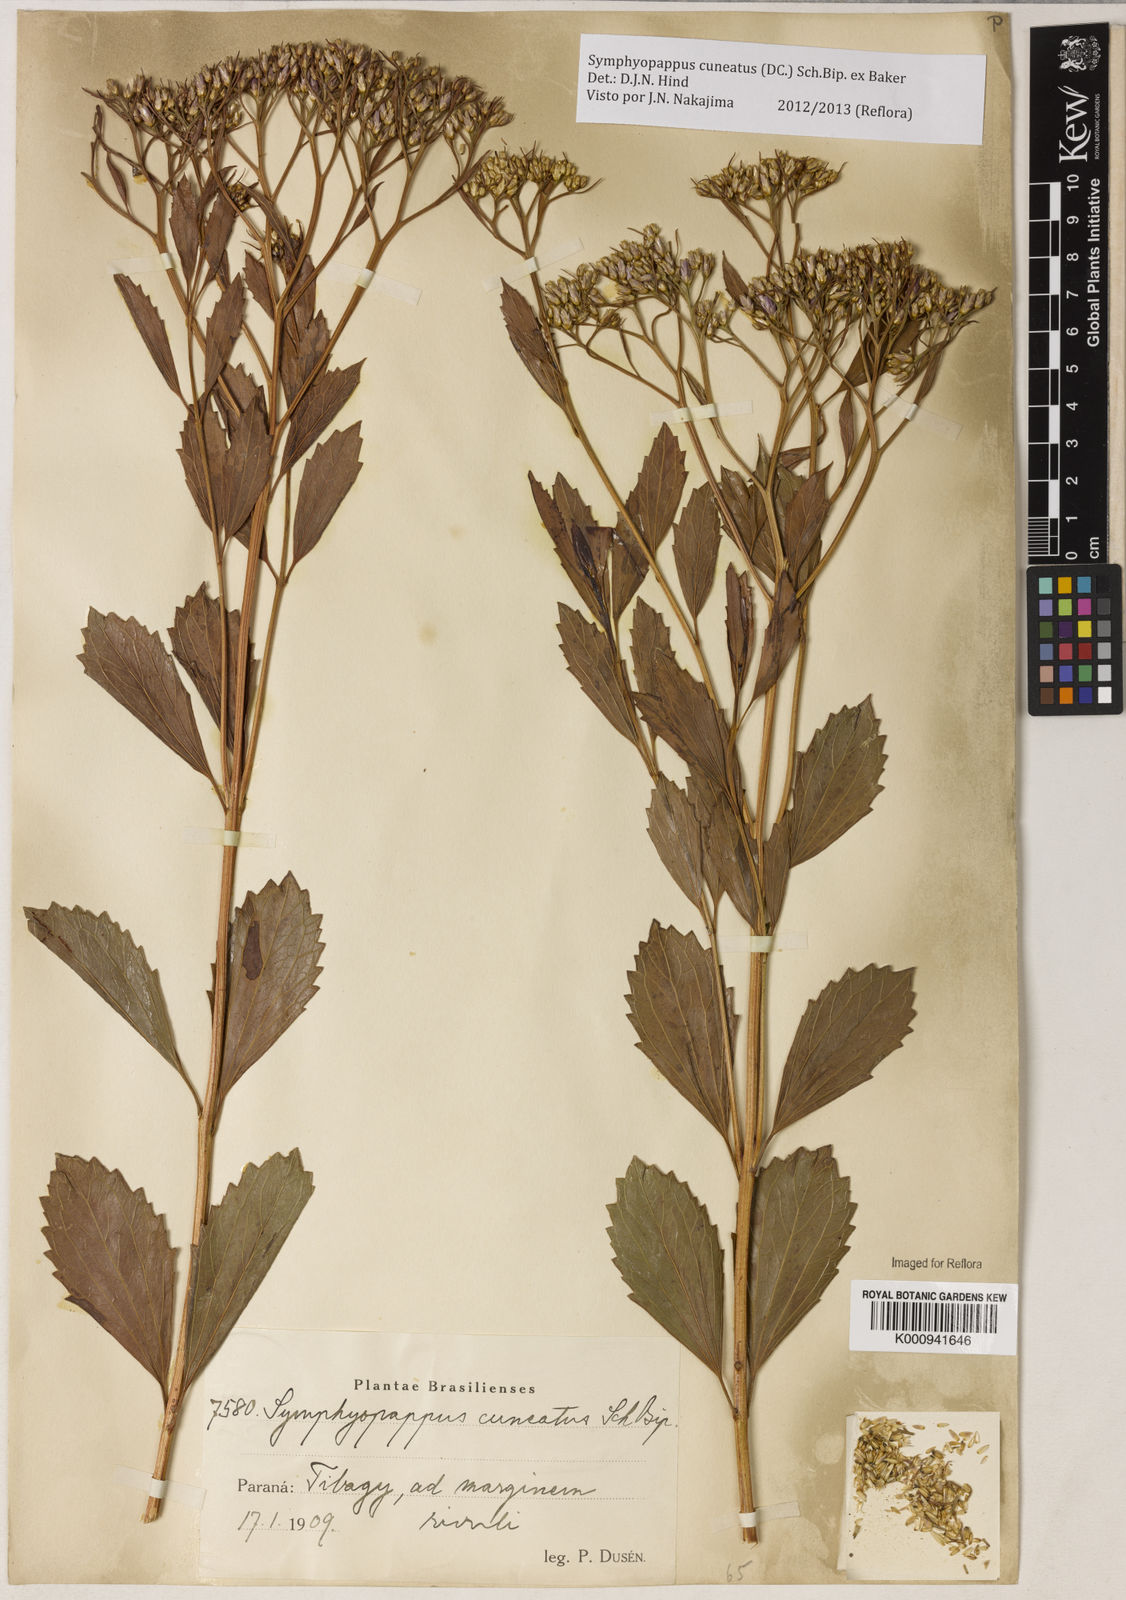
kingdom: Plantae
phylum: Tracheophyta
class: Magnoliopsida
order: Asterales
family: Asteraceae
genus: Symphyopappus
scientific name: Symphyopappus cuneatus
